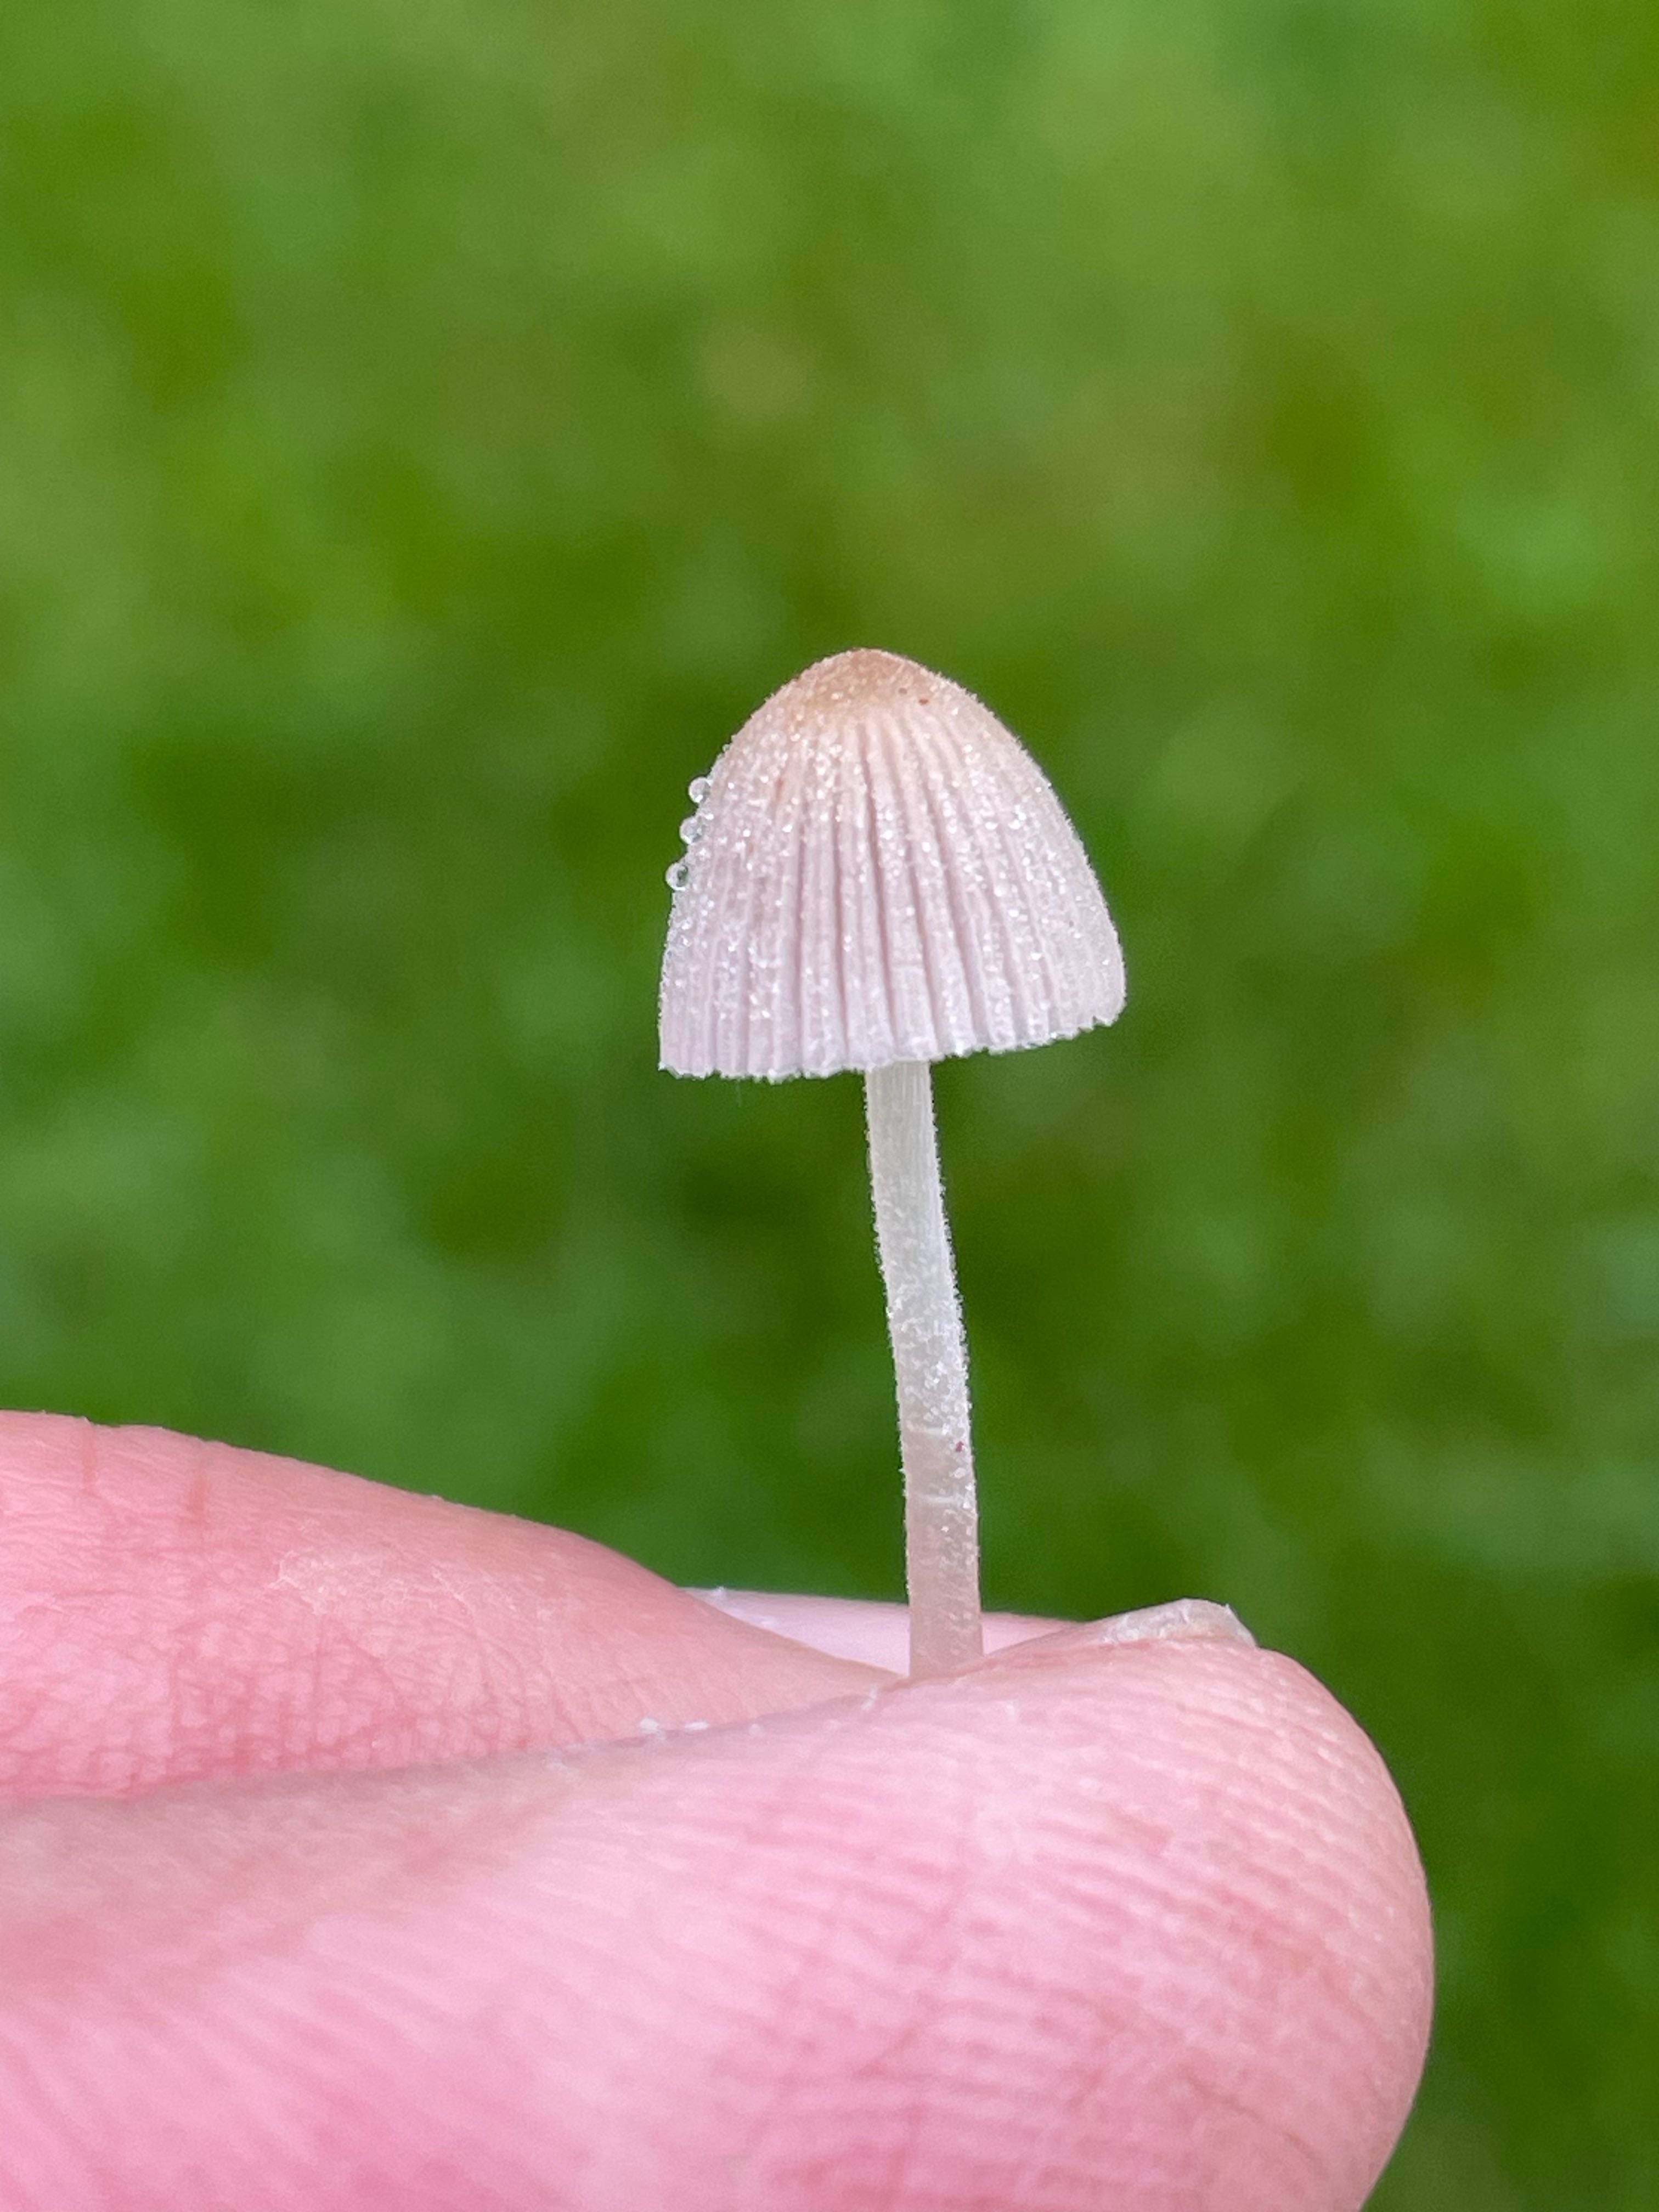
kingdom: Fungi
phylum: Basidiomycota
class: Agaricomycetes
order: Agaricales
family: Psathyrellaceae
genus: Coprinellus
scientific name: Coprinellus disseminatus
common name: bredsået blækhat
